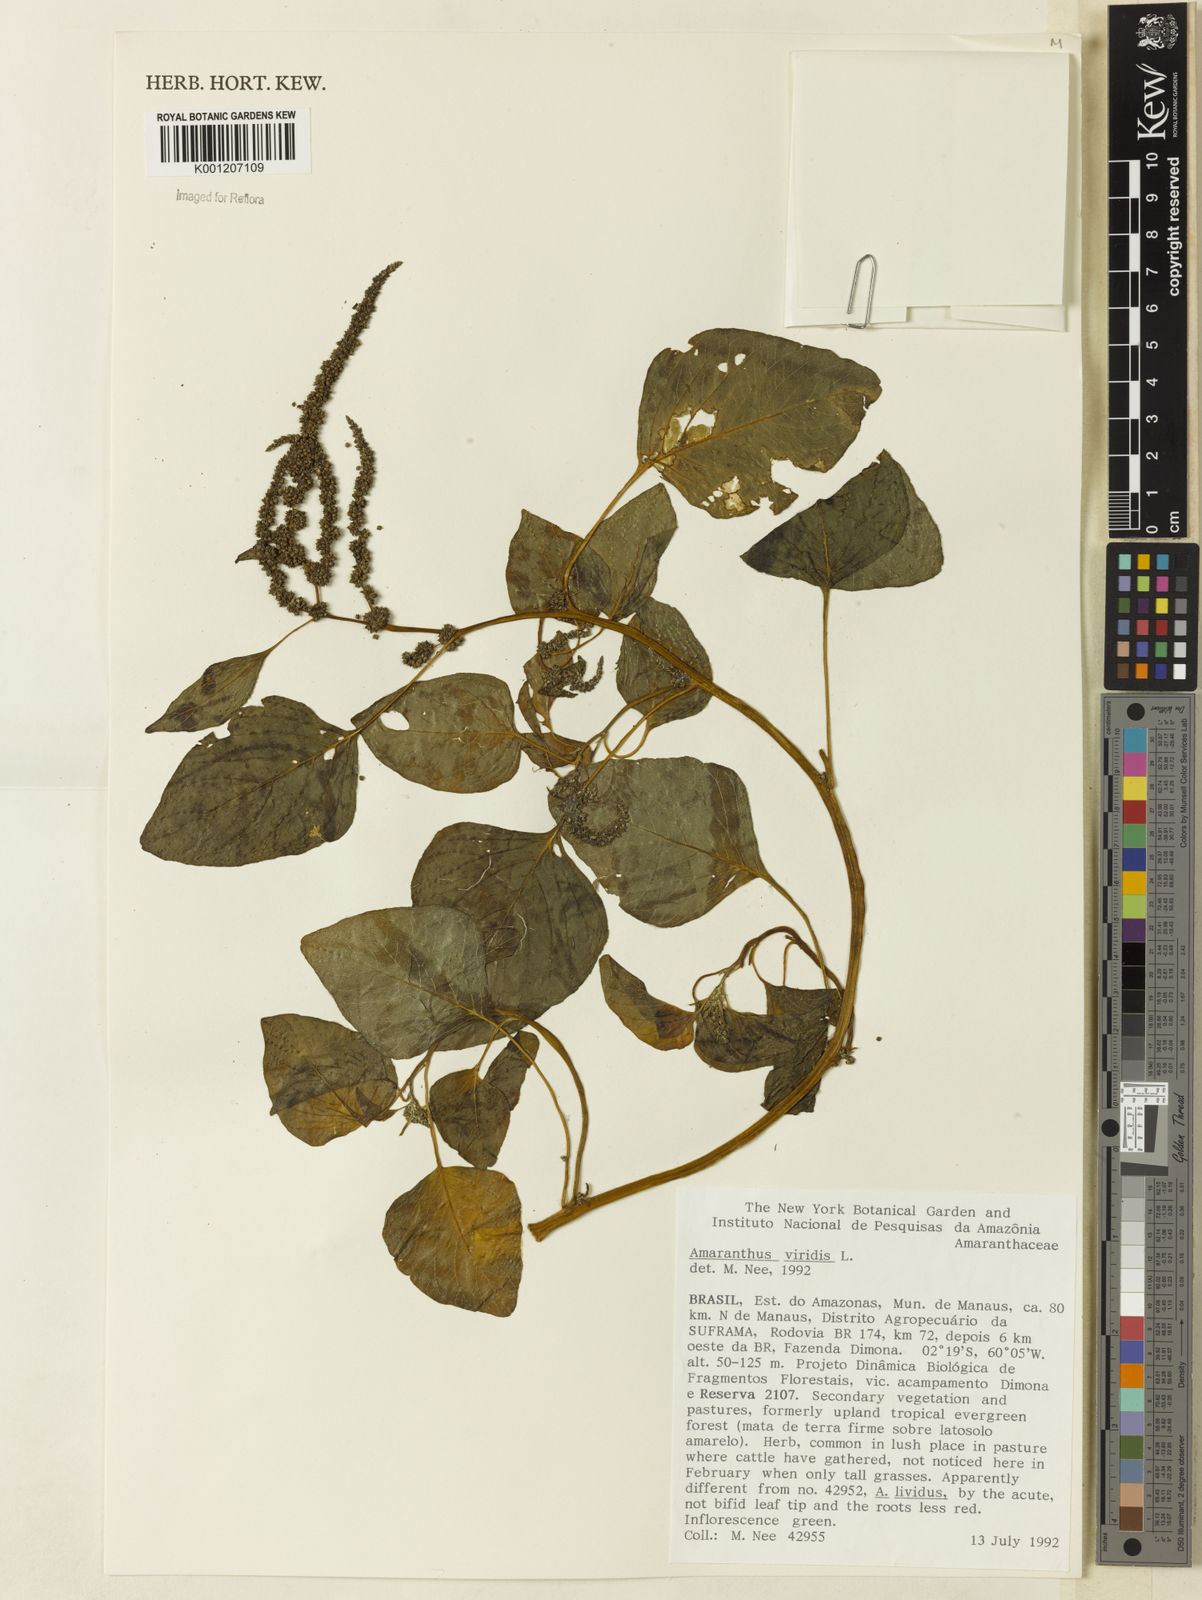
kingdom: Plantae
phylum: Tracheophyta
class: Magnoliopsida
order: Caryophyllales
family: Amaranthaceae
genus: Amaranthus
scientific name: Amaranthus viridis
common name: Slender amaranth
